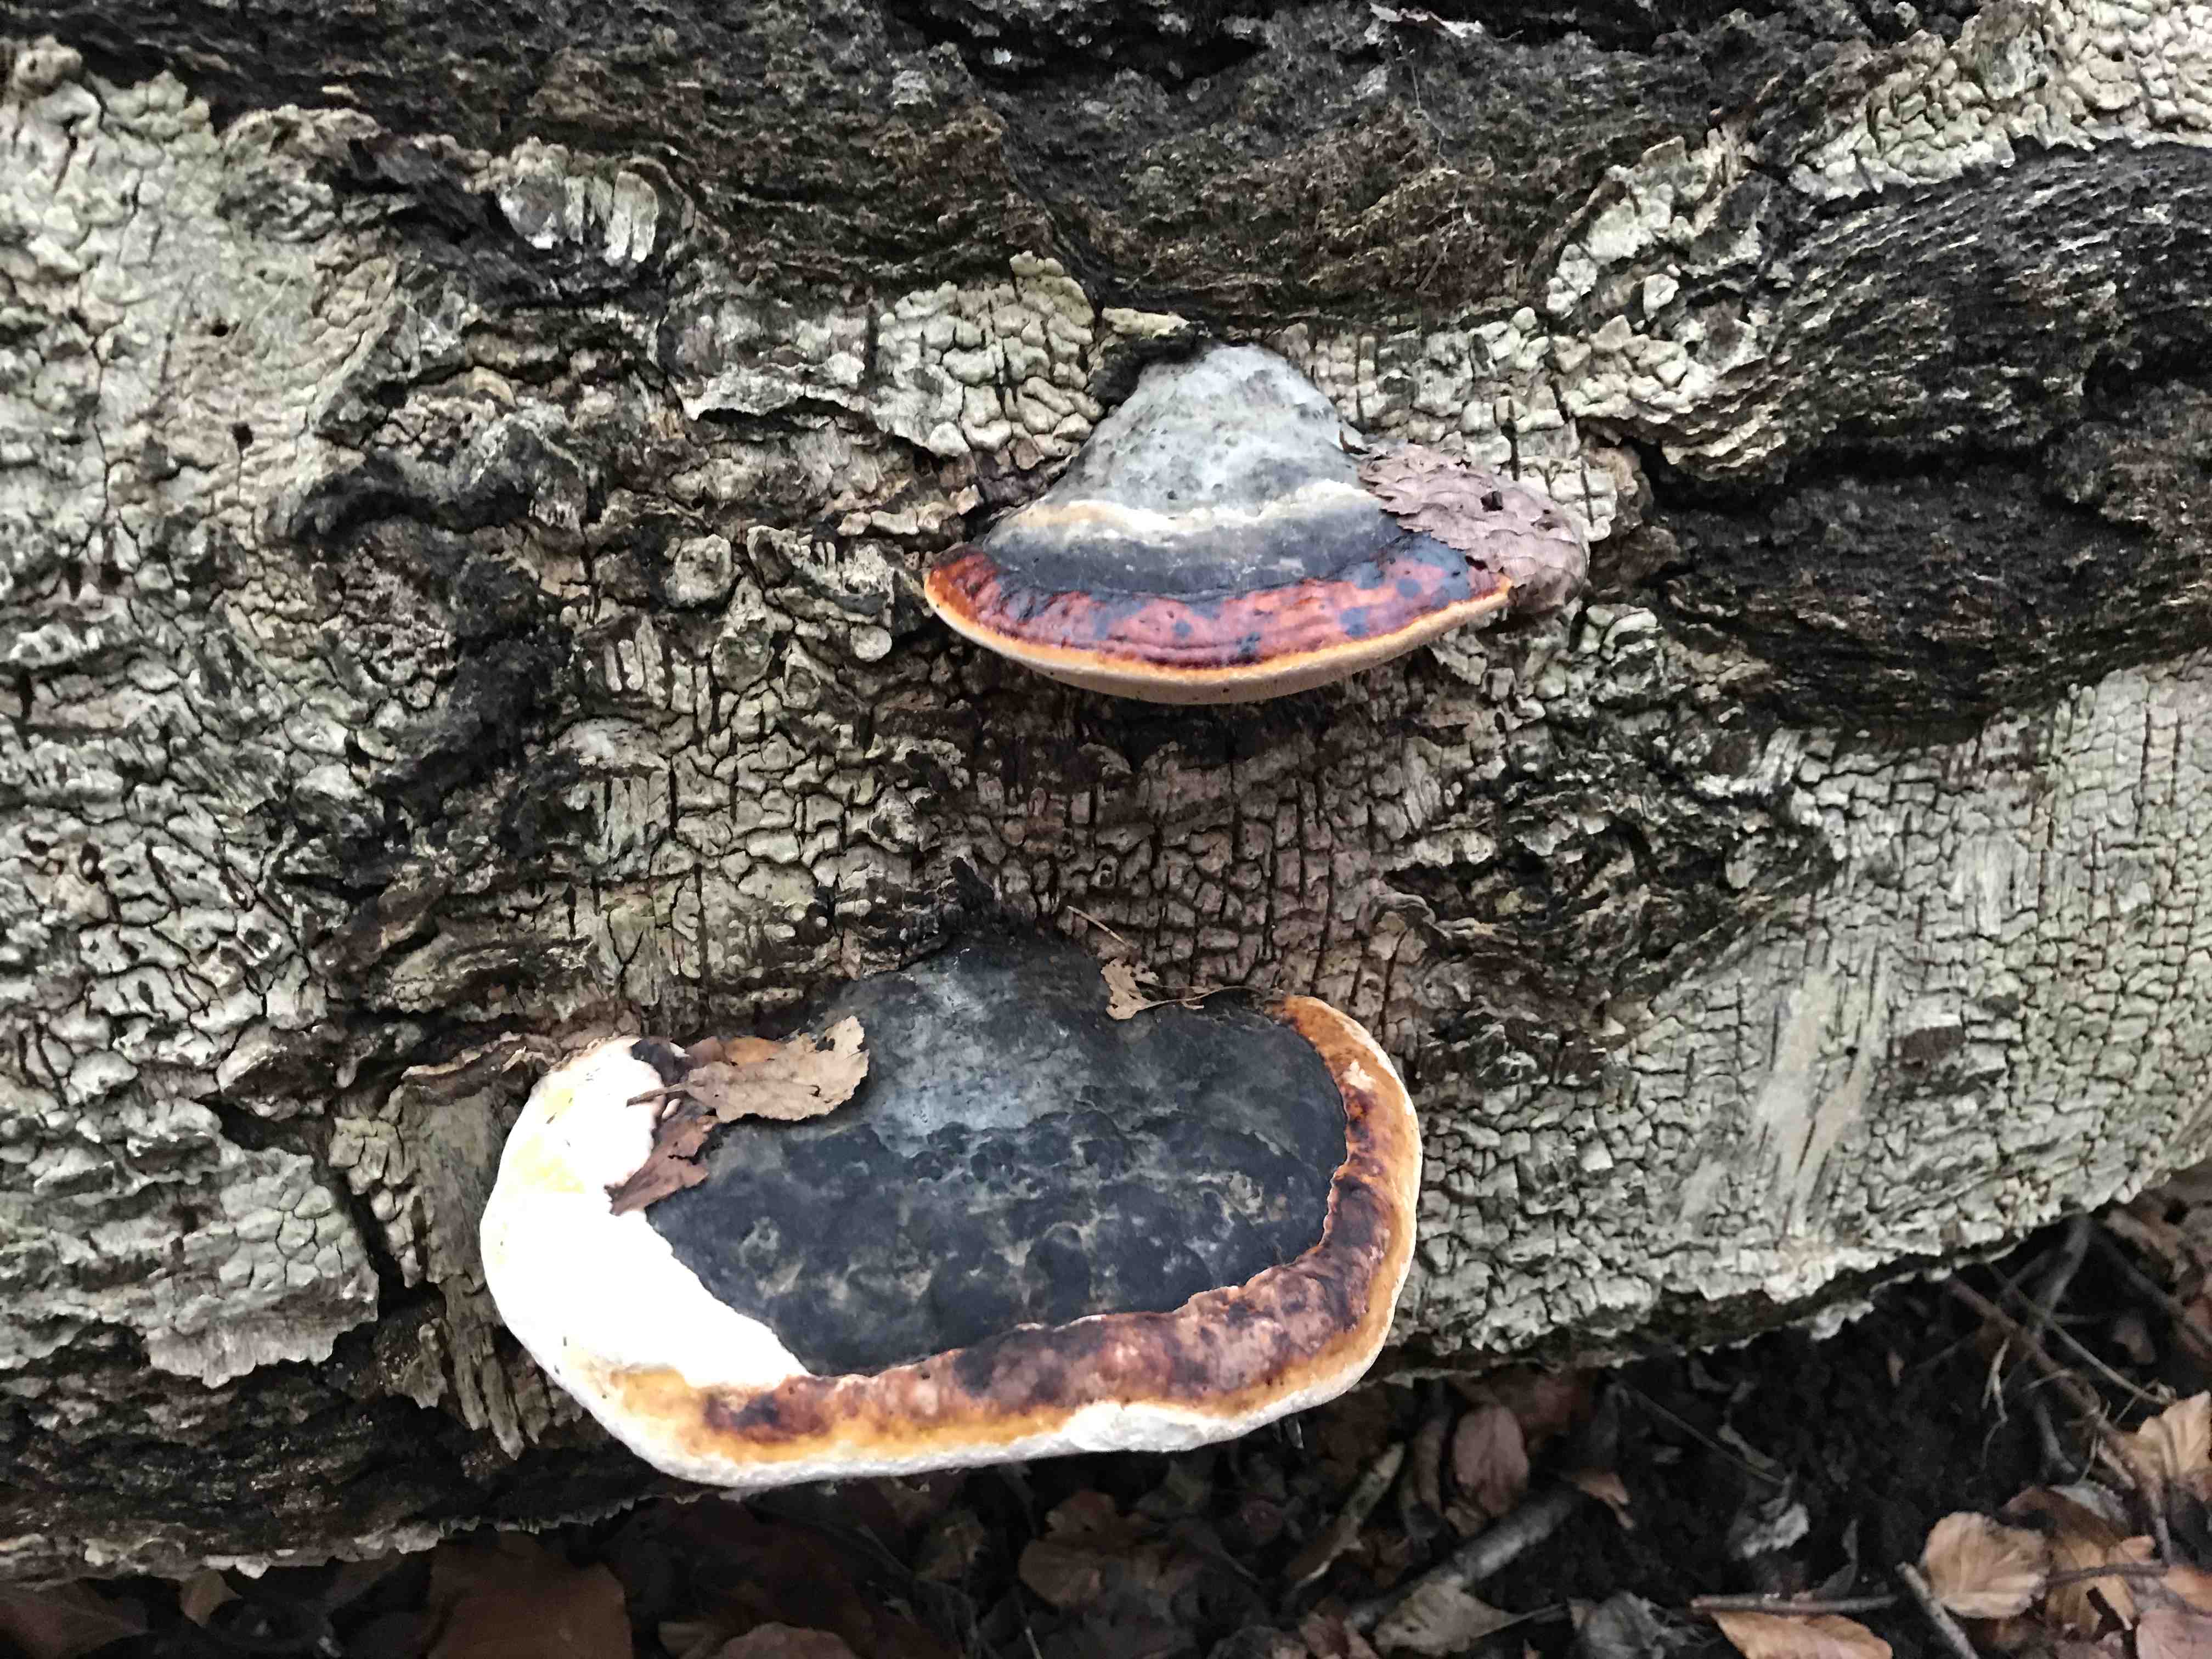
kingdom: Fungi
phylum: Basidiomycota
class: Agaricomycetes
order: Polyporales
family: Fomitopsidaceae
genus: Fomitopsis
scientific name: Fomitopsis pinicola
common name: randbæltet hovporesvamp
